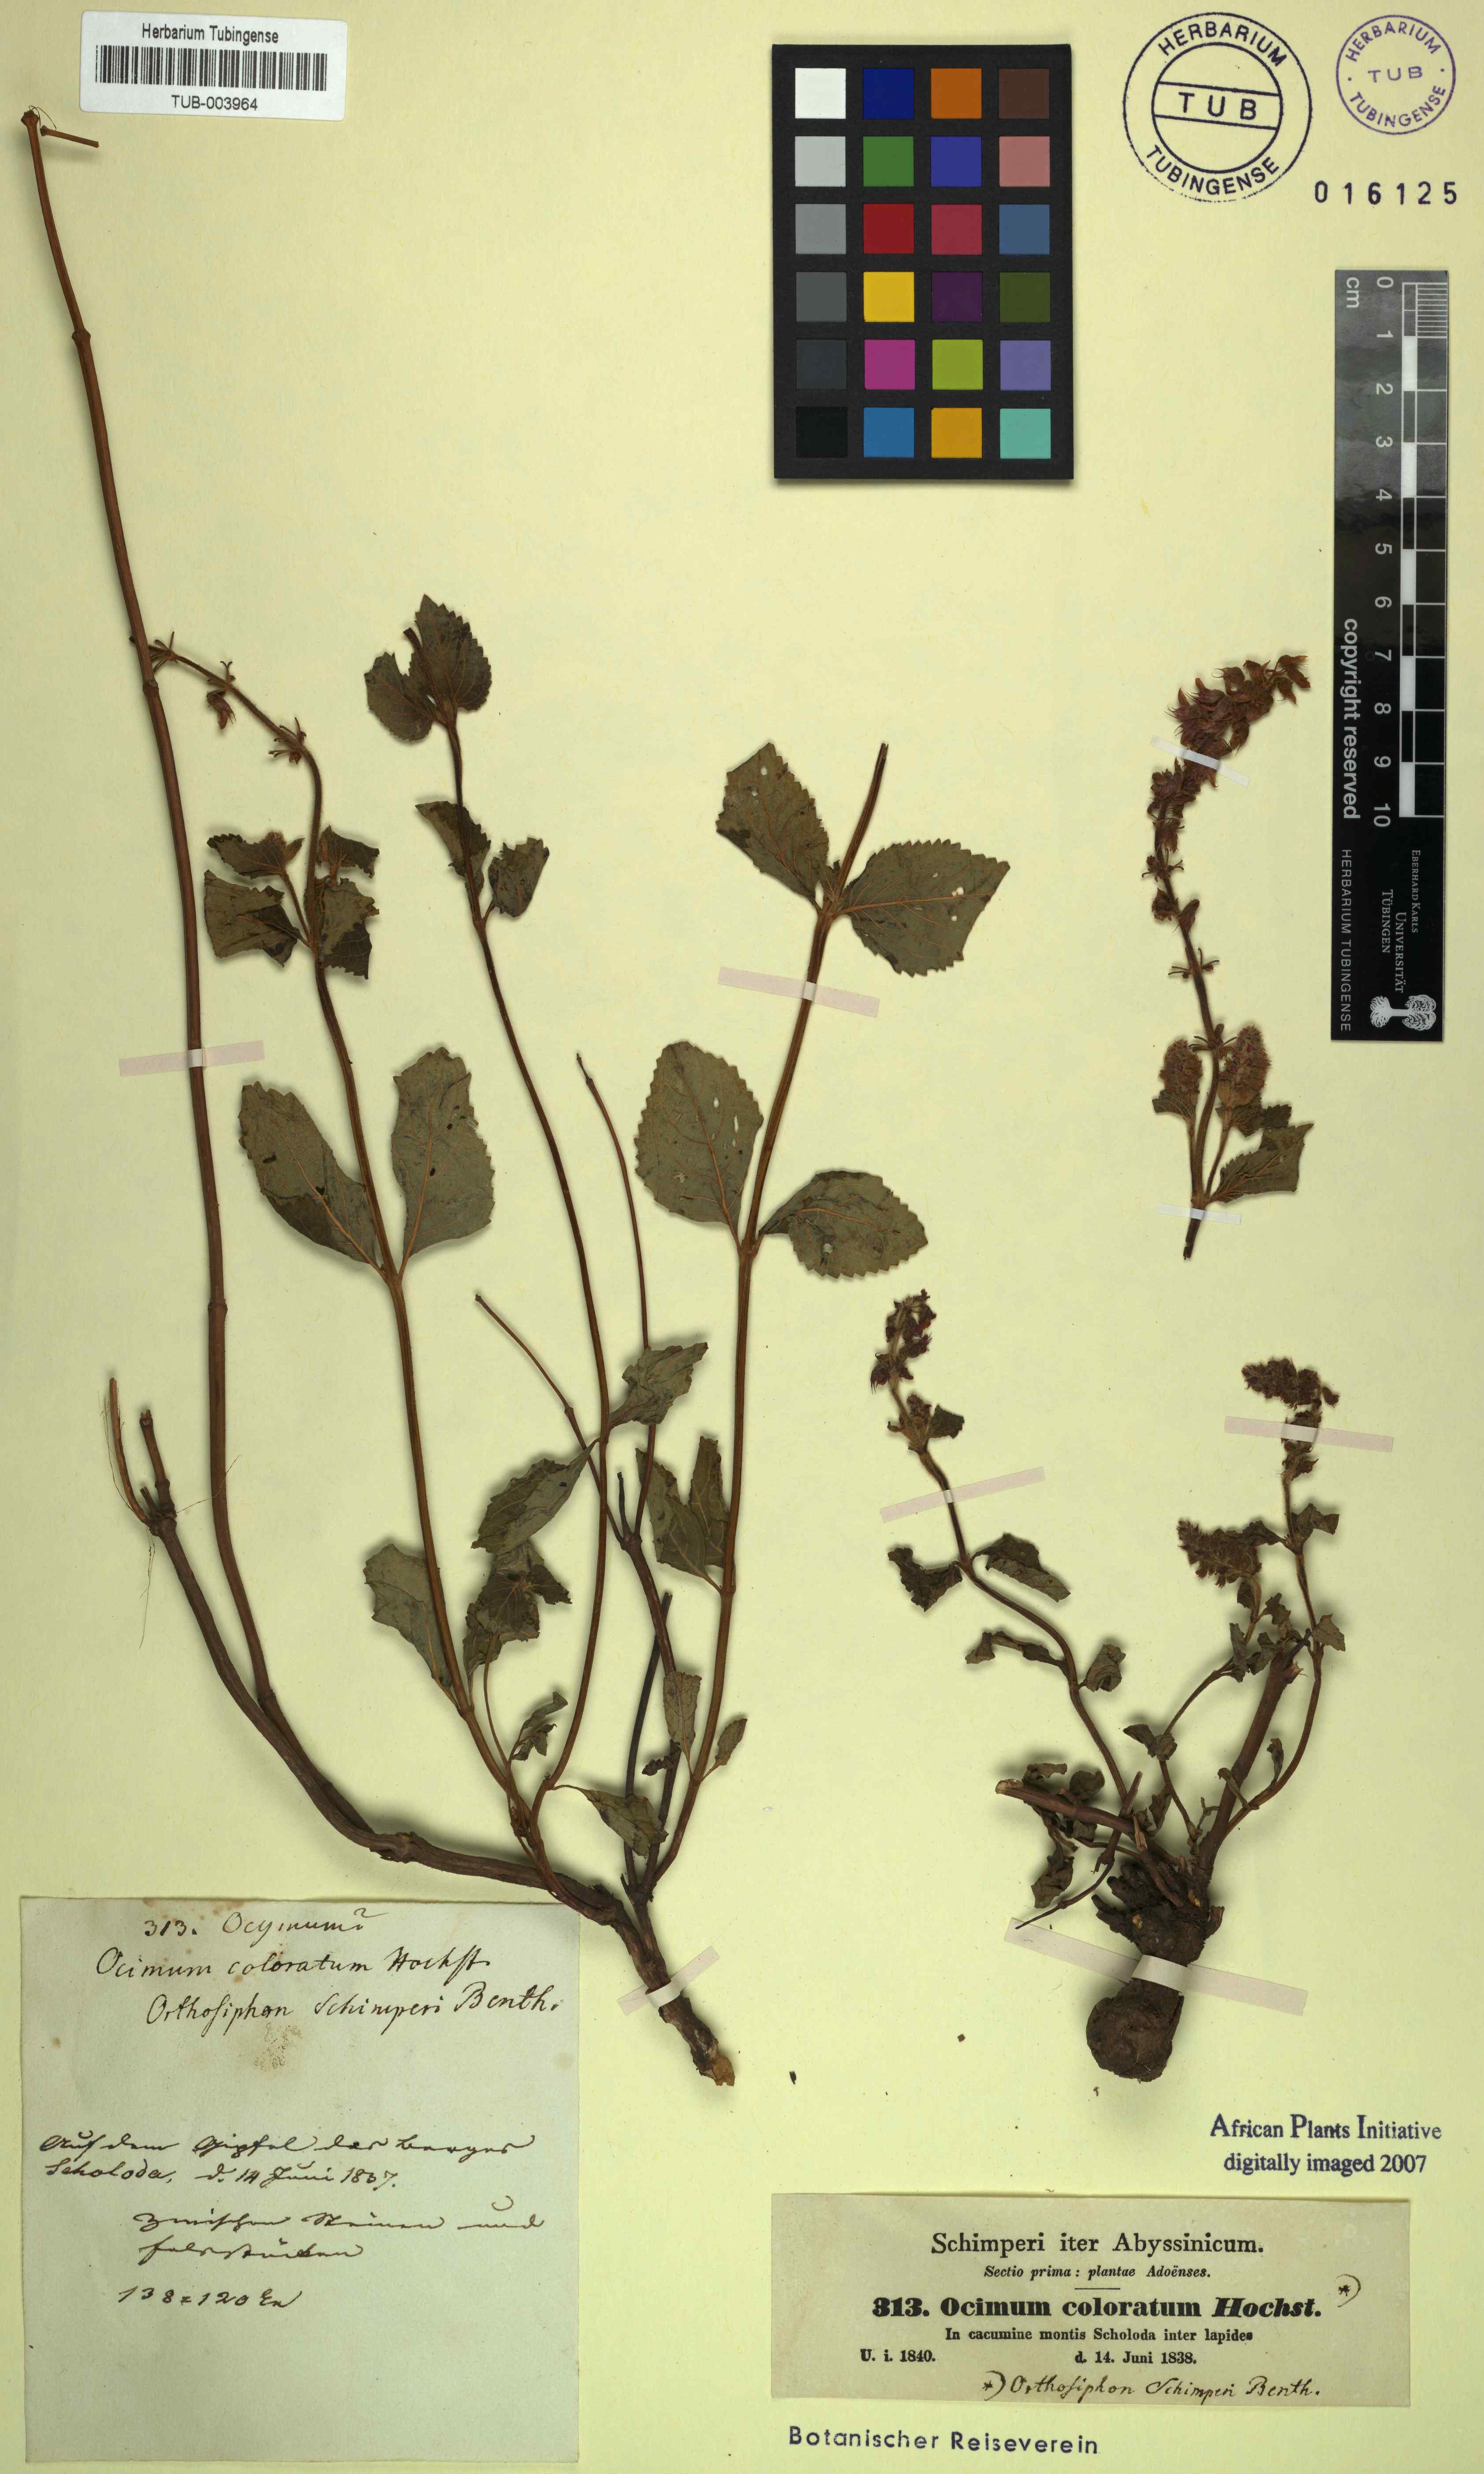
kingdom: Plantae
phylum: Tracheophyta
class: Magnoliopsida
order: Lamiales
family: Lamiaceae
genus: Orthosiphon
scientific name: Orthosiphon schimperi
